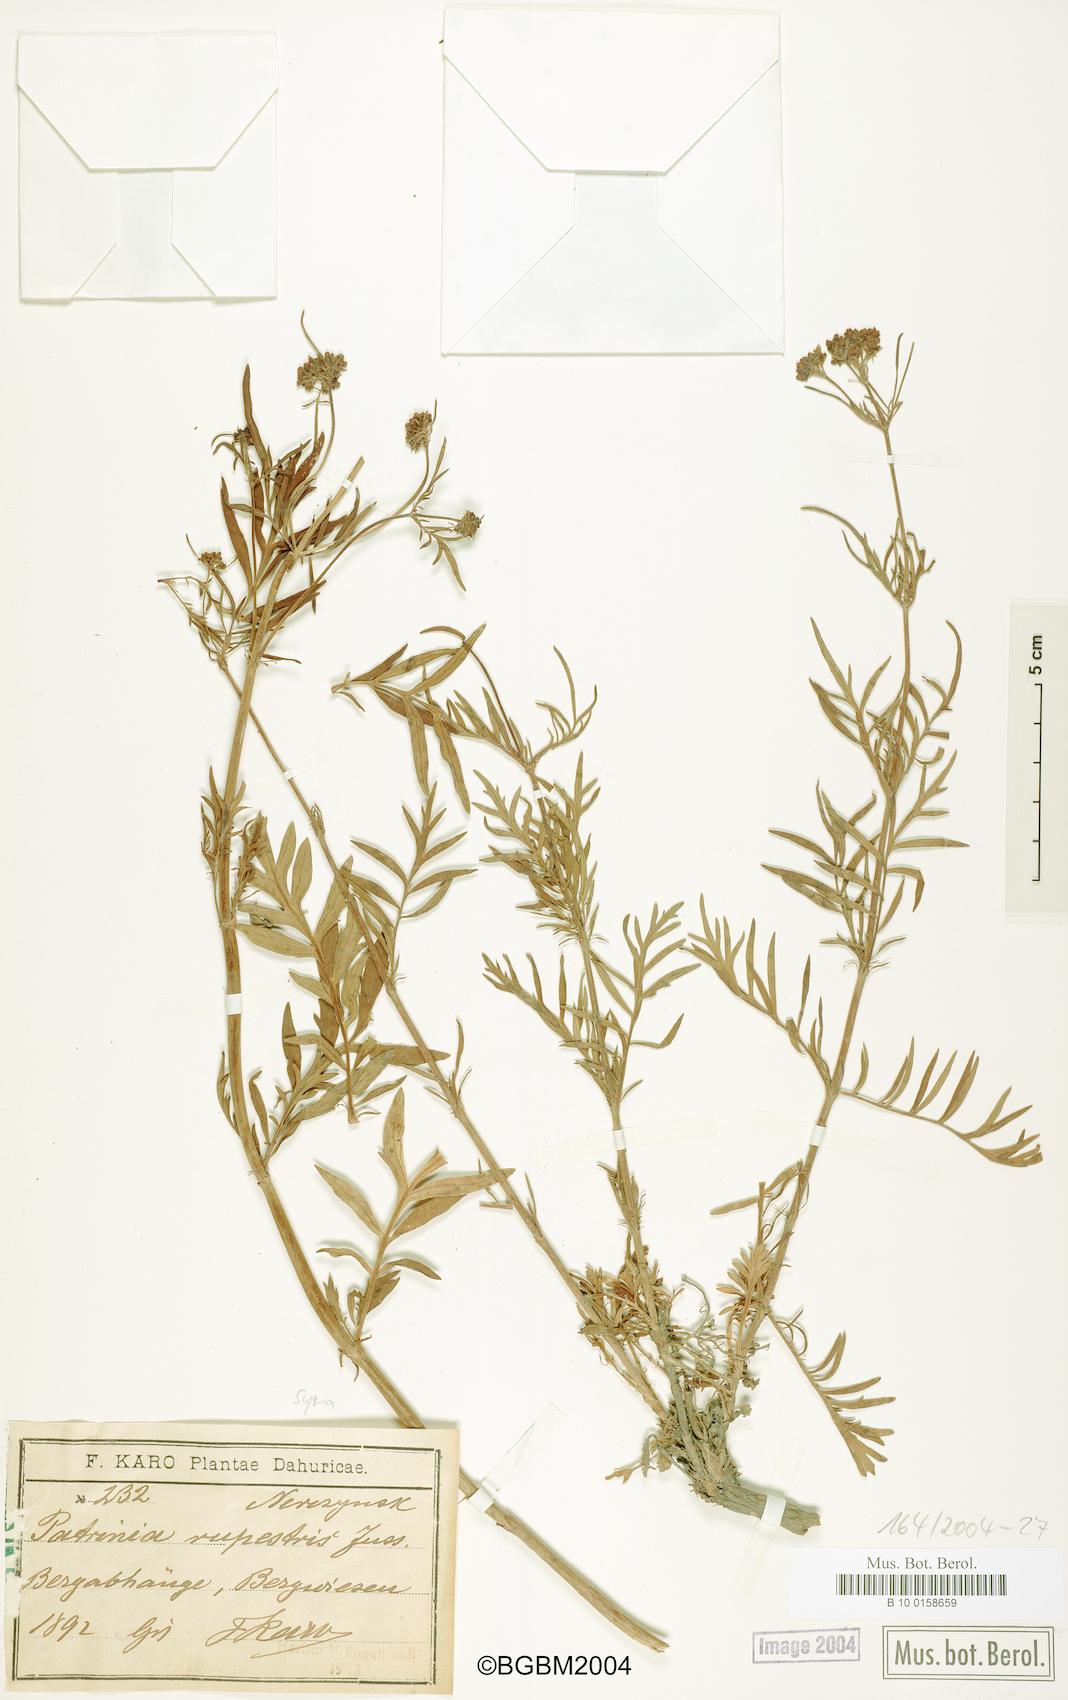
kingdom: Plantae
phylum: Tracheophyta
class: Magnoliopsida
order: Dipsacales
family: Caprifoliaceae
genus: Patrinia
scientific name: Patrinia rupestris
